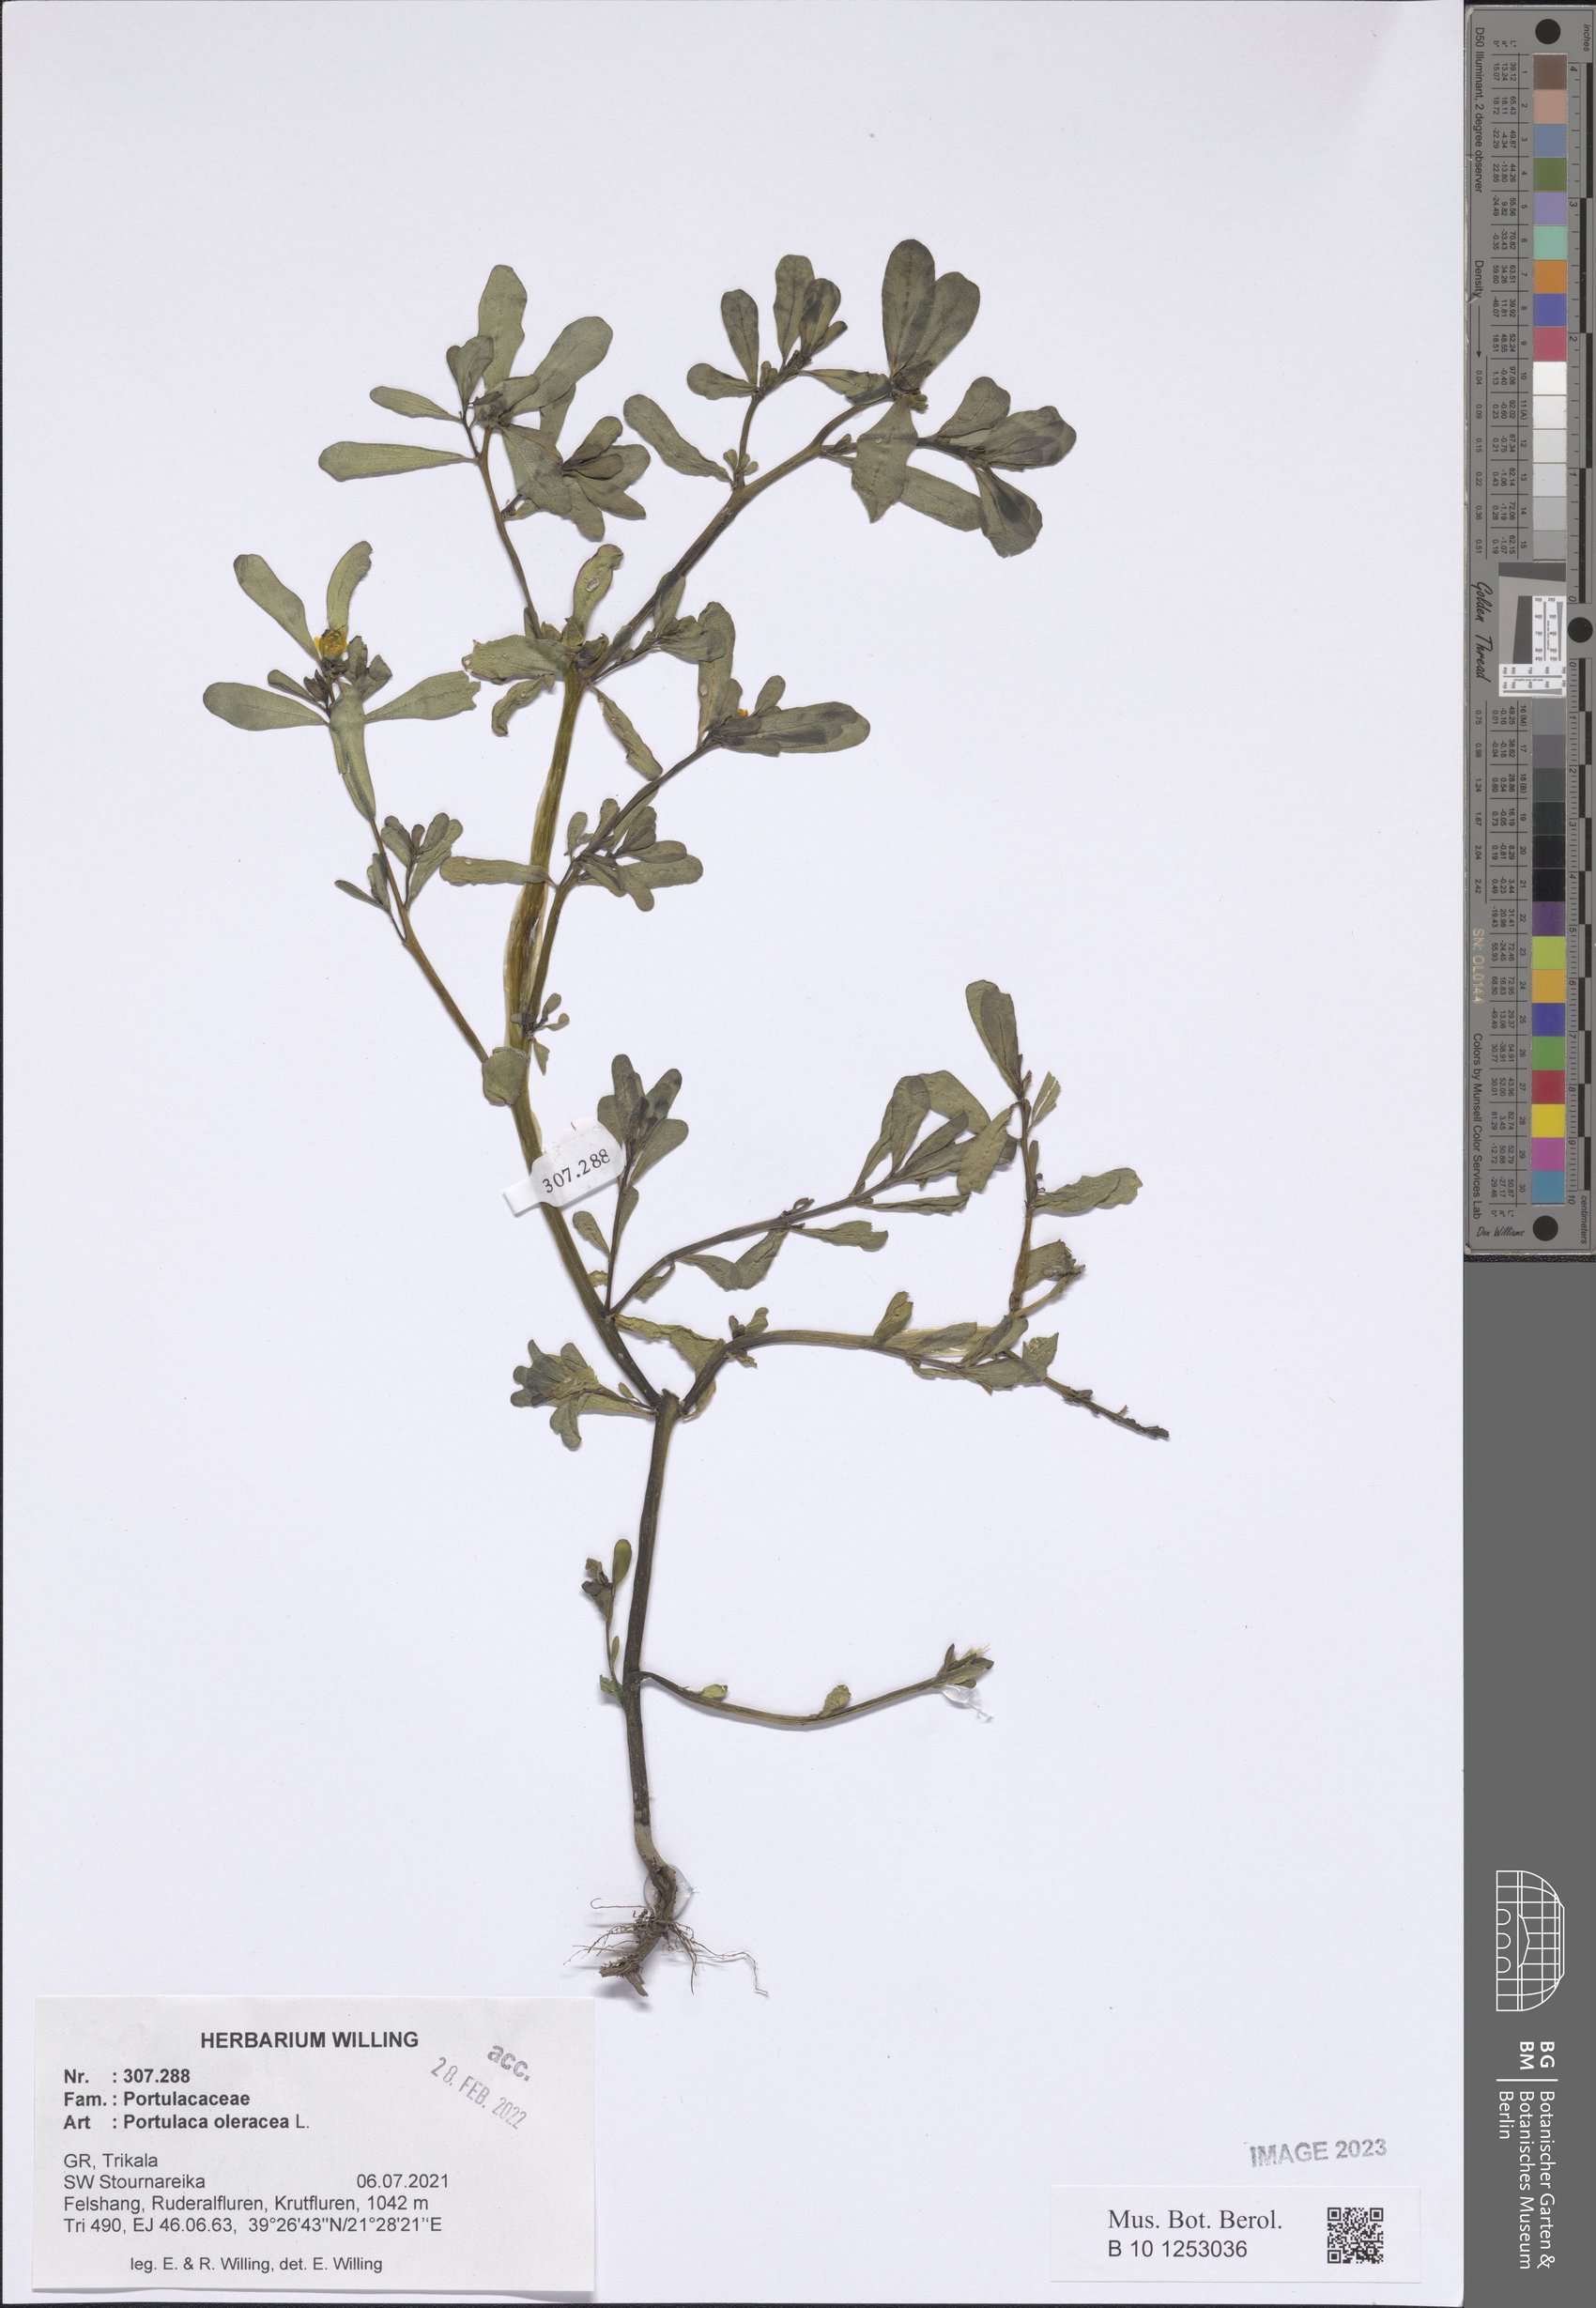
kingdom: Plantae
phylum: Tracheophyta
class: Magnoliopsida
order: Caryophyllales
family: Portulacaceae
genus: Portulaca
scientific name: Portulaca oleracea
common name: Common purslane
